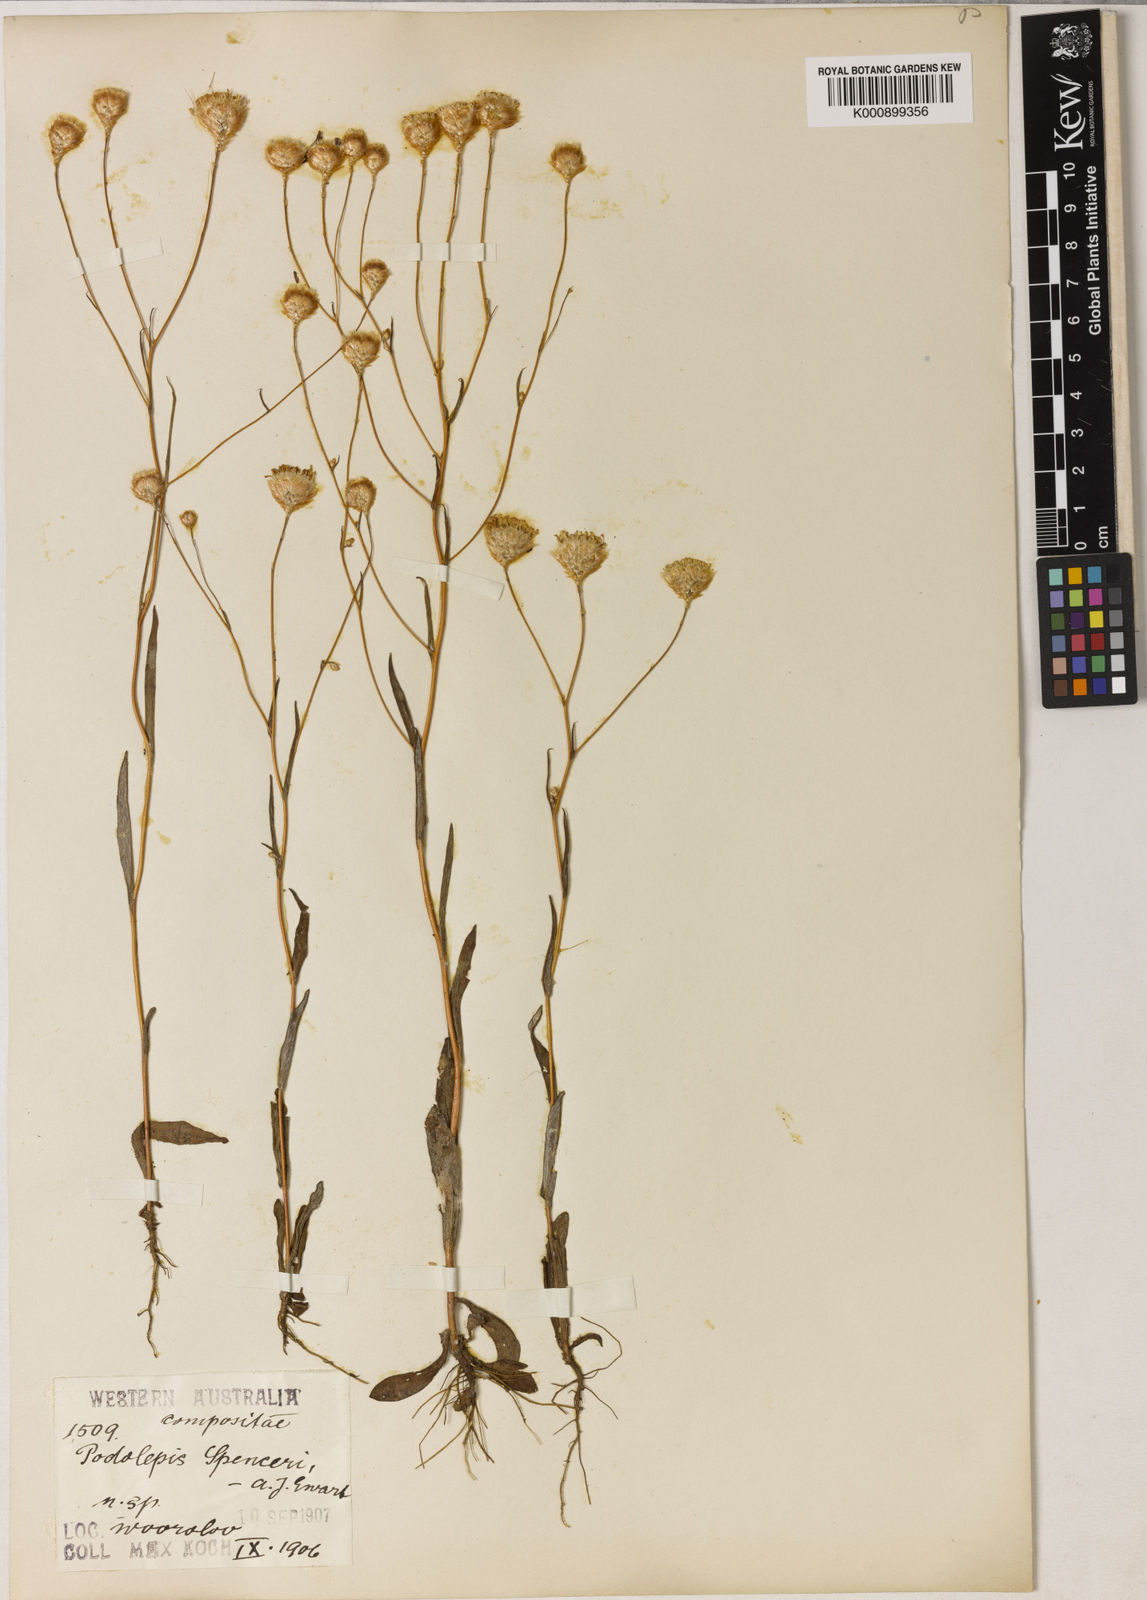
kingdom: Plantae
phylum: Tracheophyta
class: Magnoliopsida
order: Asterales
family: Asteraceae
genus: Podolepis
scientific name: Podolepis gracilis
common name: Slender podolepis
